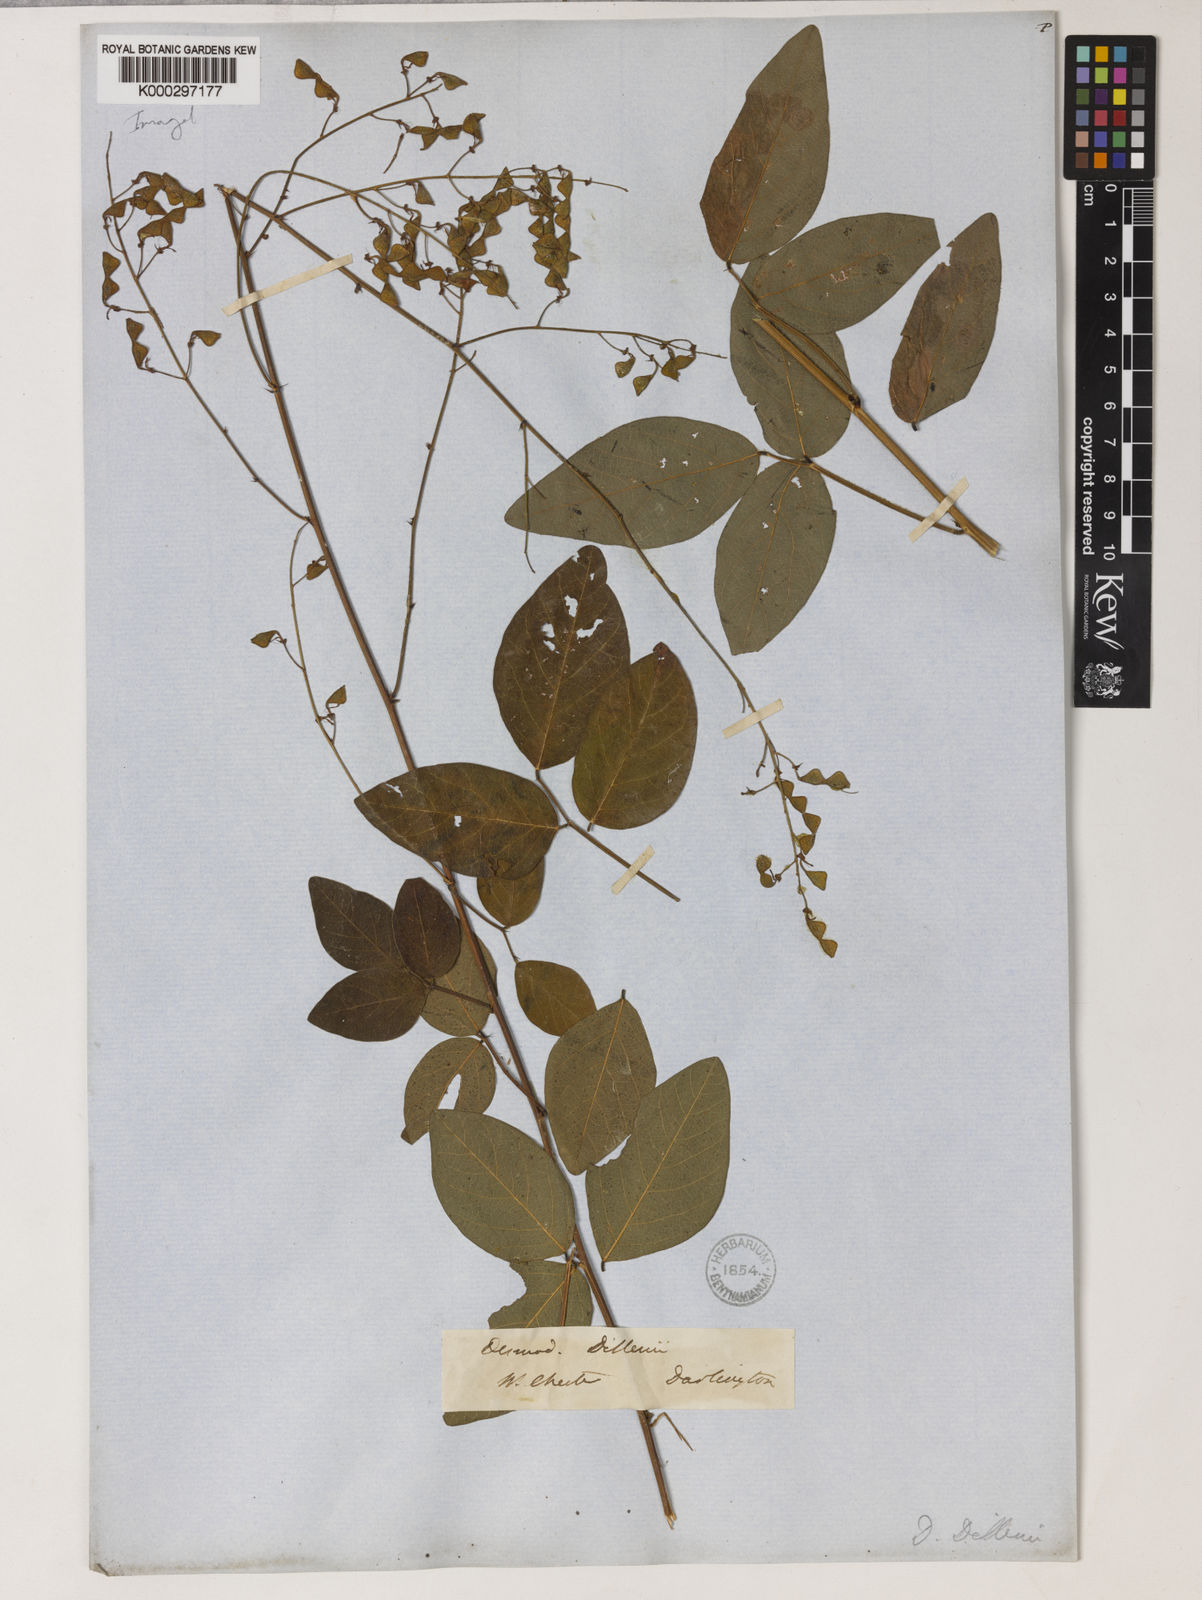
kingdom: Plantae
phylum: Tracheophyta
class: Magnoliopsida
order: Fabales
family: Fabaceae
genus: Desmodium
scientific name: Desmodium perplexum
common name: Perplexed tick trefoil
